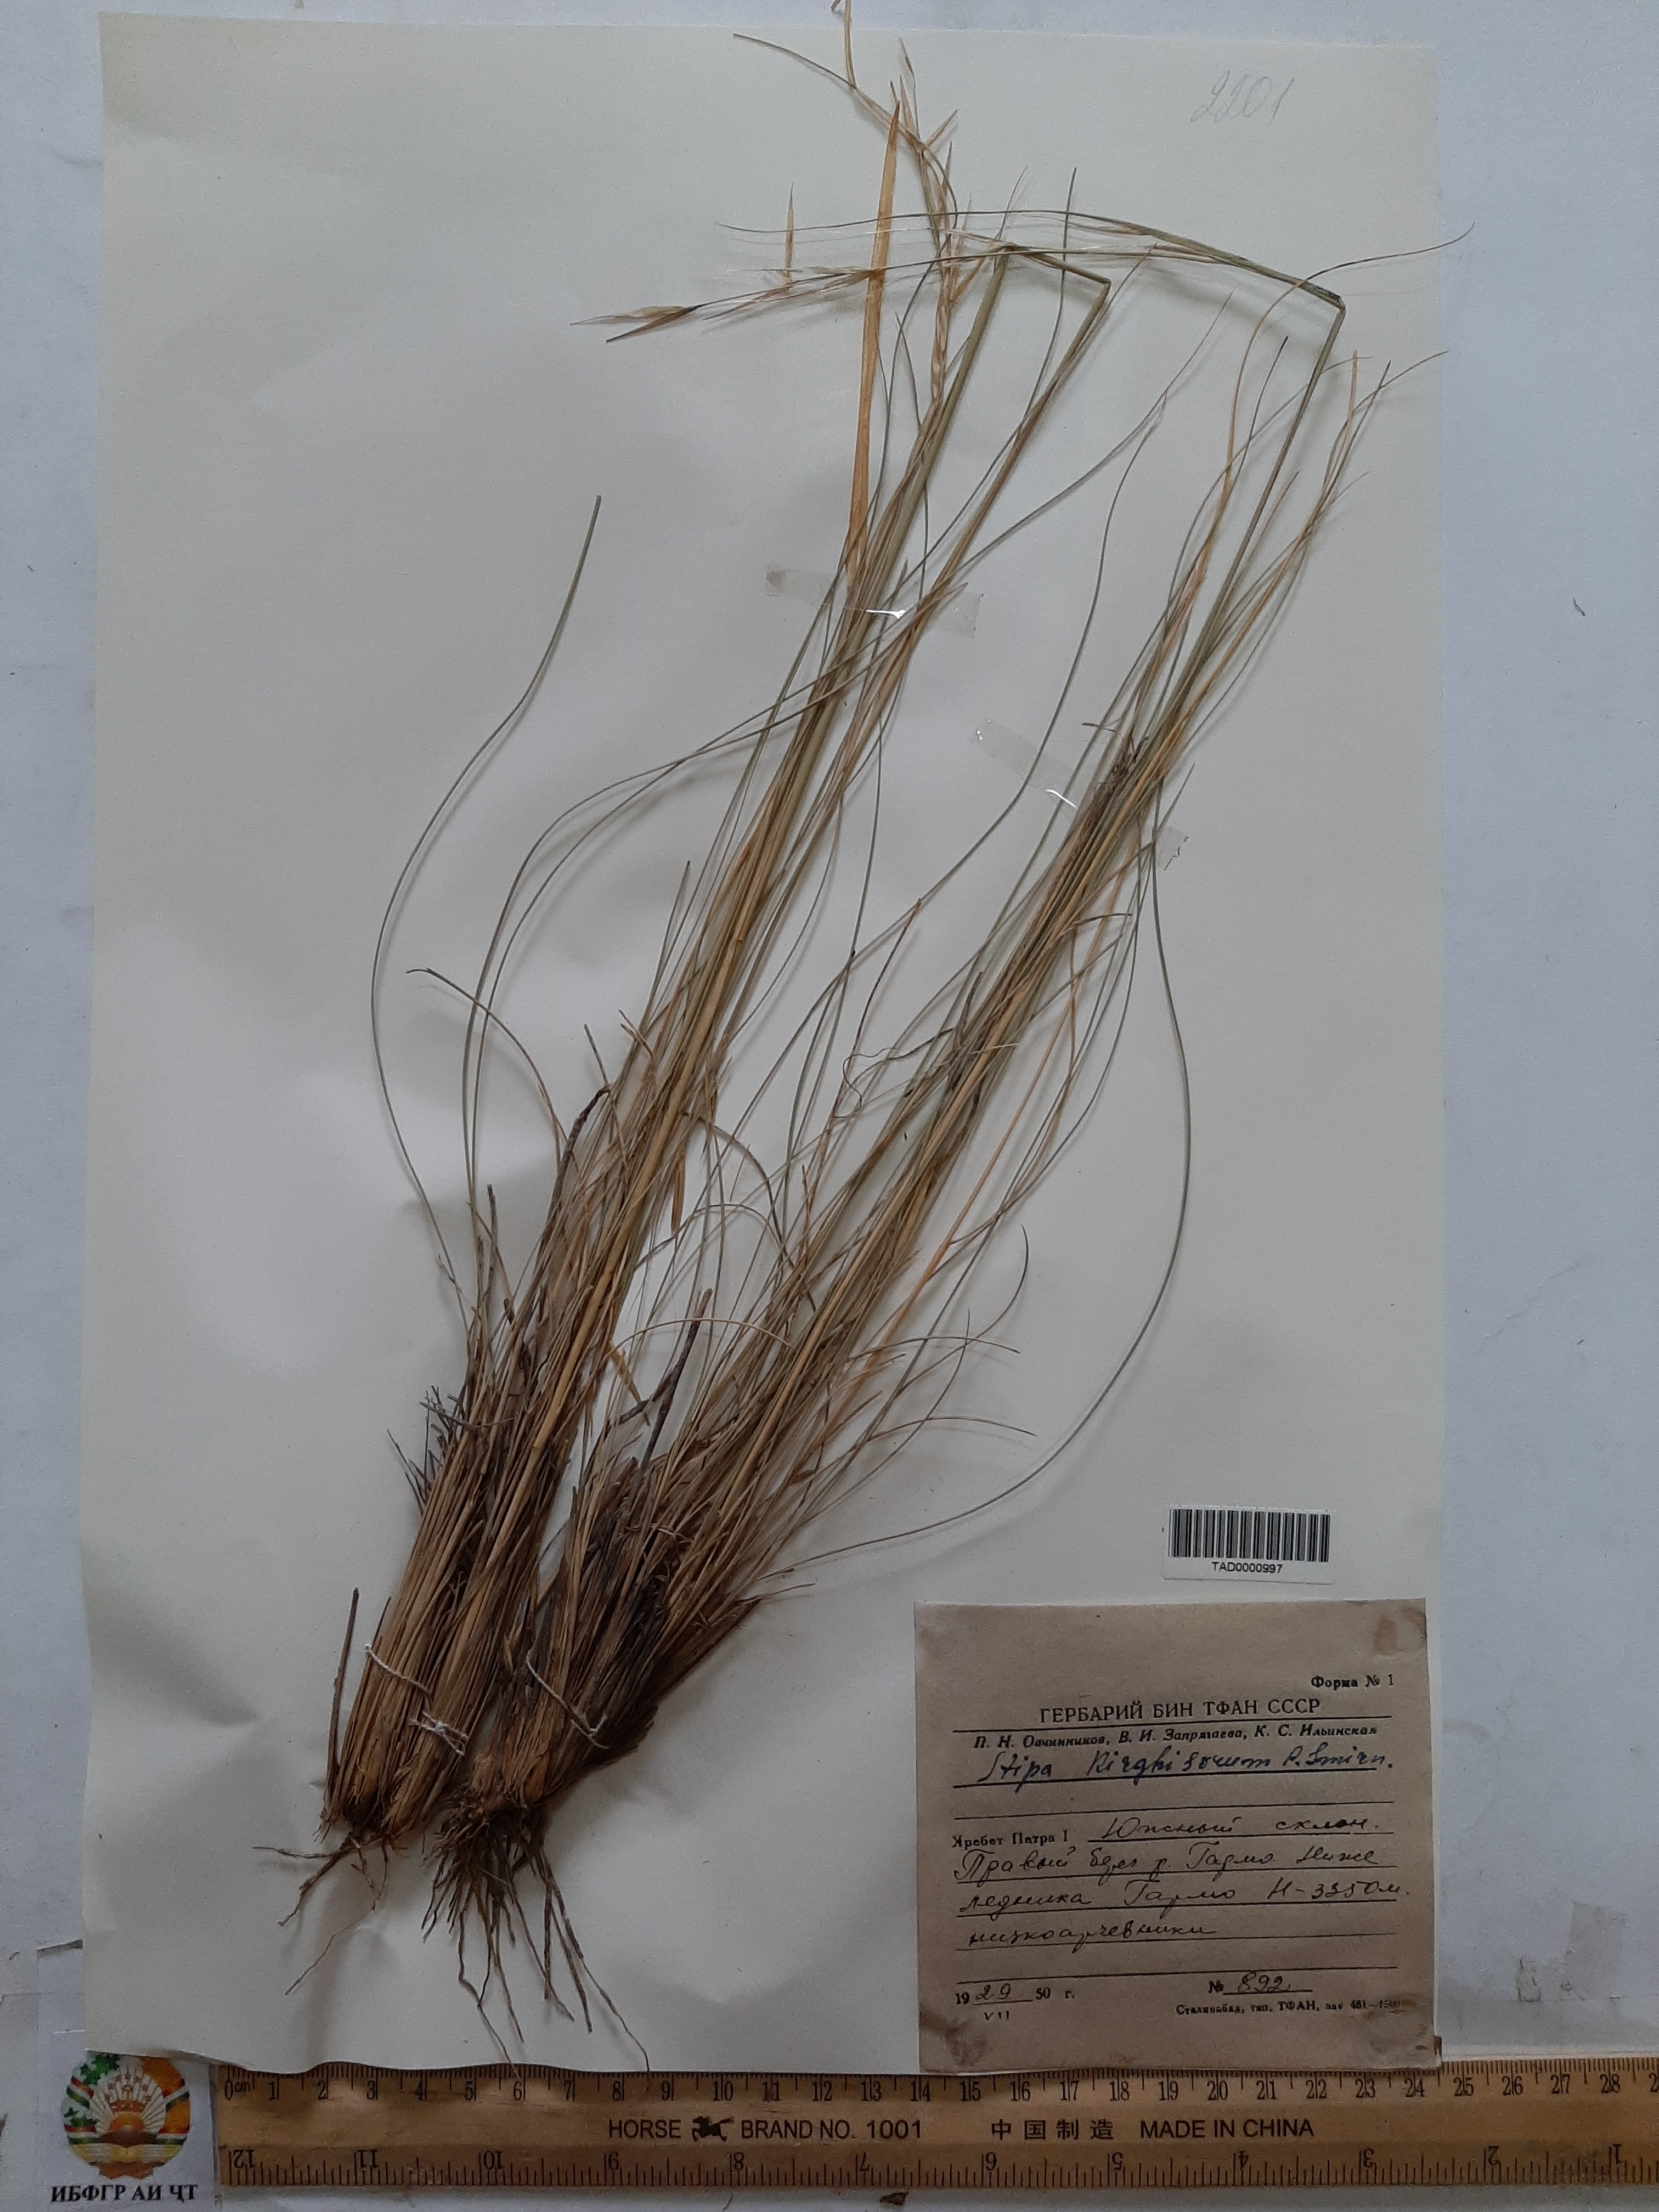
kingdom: Plantae
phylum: Tracheophyta
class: Liliopsida
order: Poales
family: Poaceae
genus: Stipa
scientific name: Stipa kirghisorum
